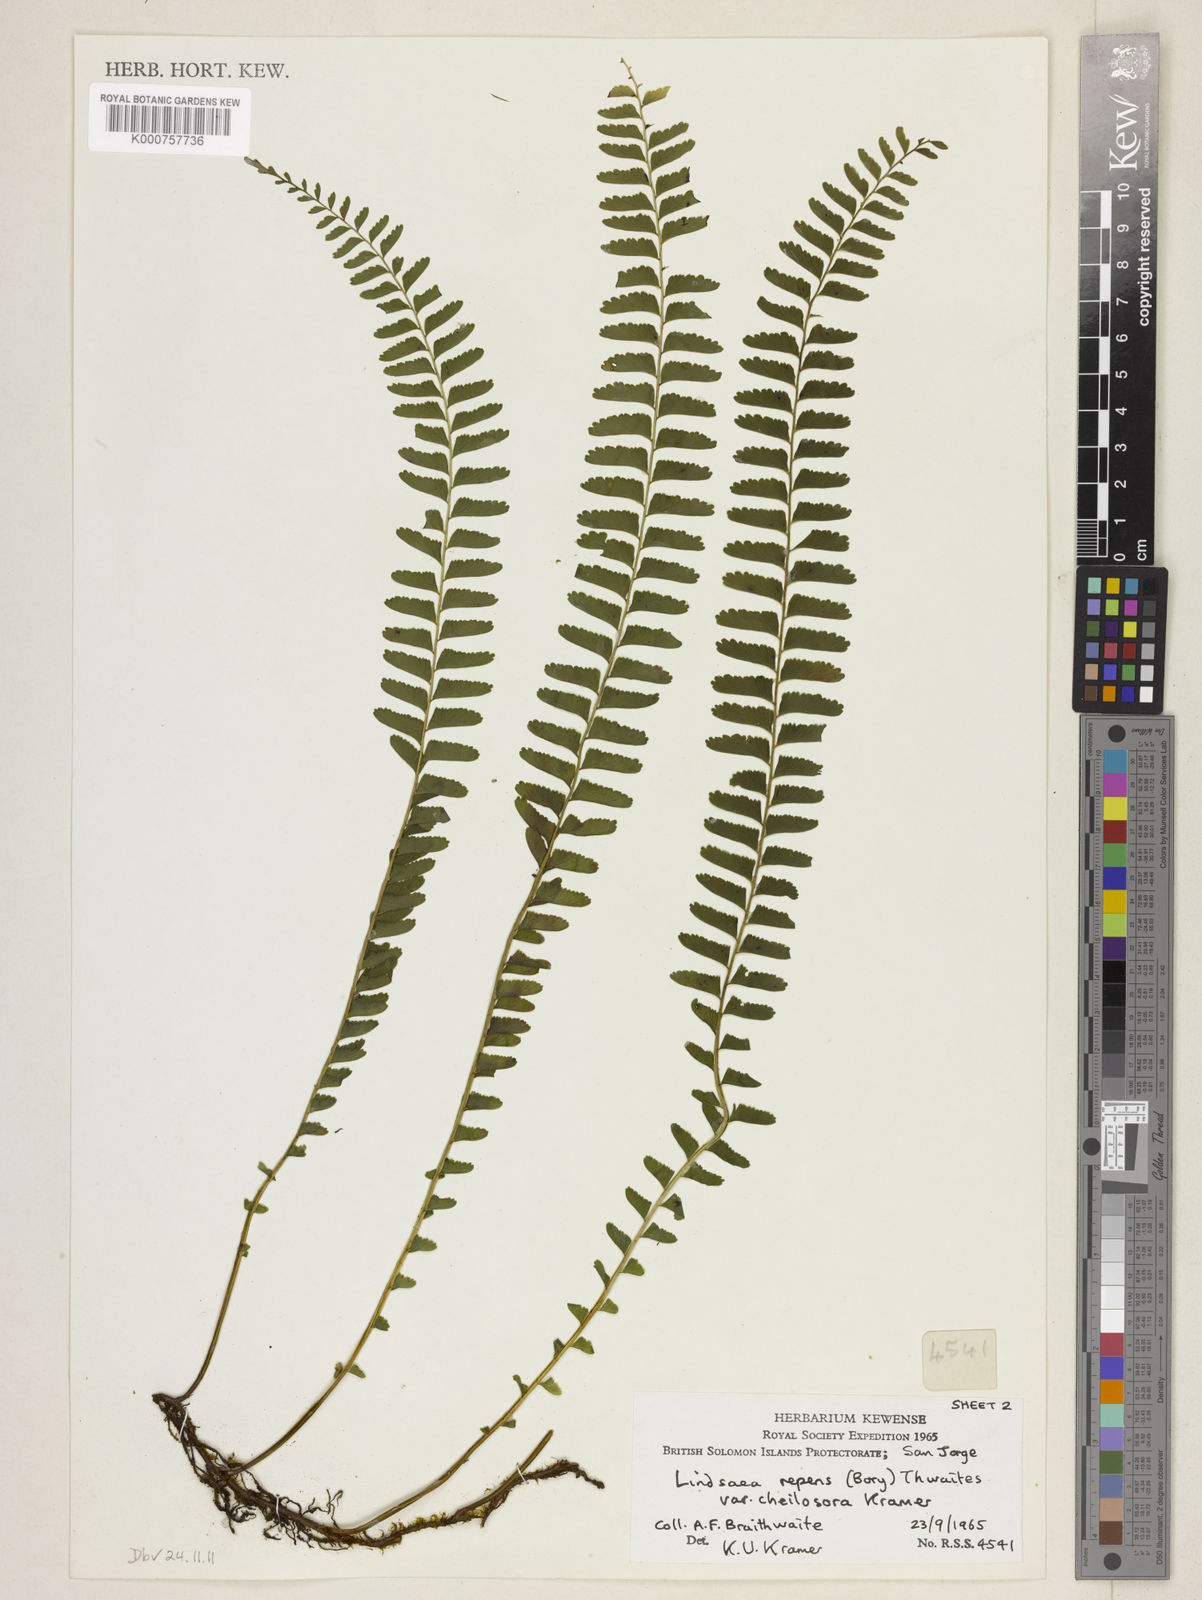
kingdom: Plantae
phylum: Tracheophyta
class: Polypodiopsida
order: Polypodiales
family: Lindsaeaceae
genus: Lindsaea
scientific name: Lindsaea cheilosora
